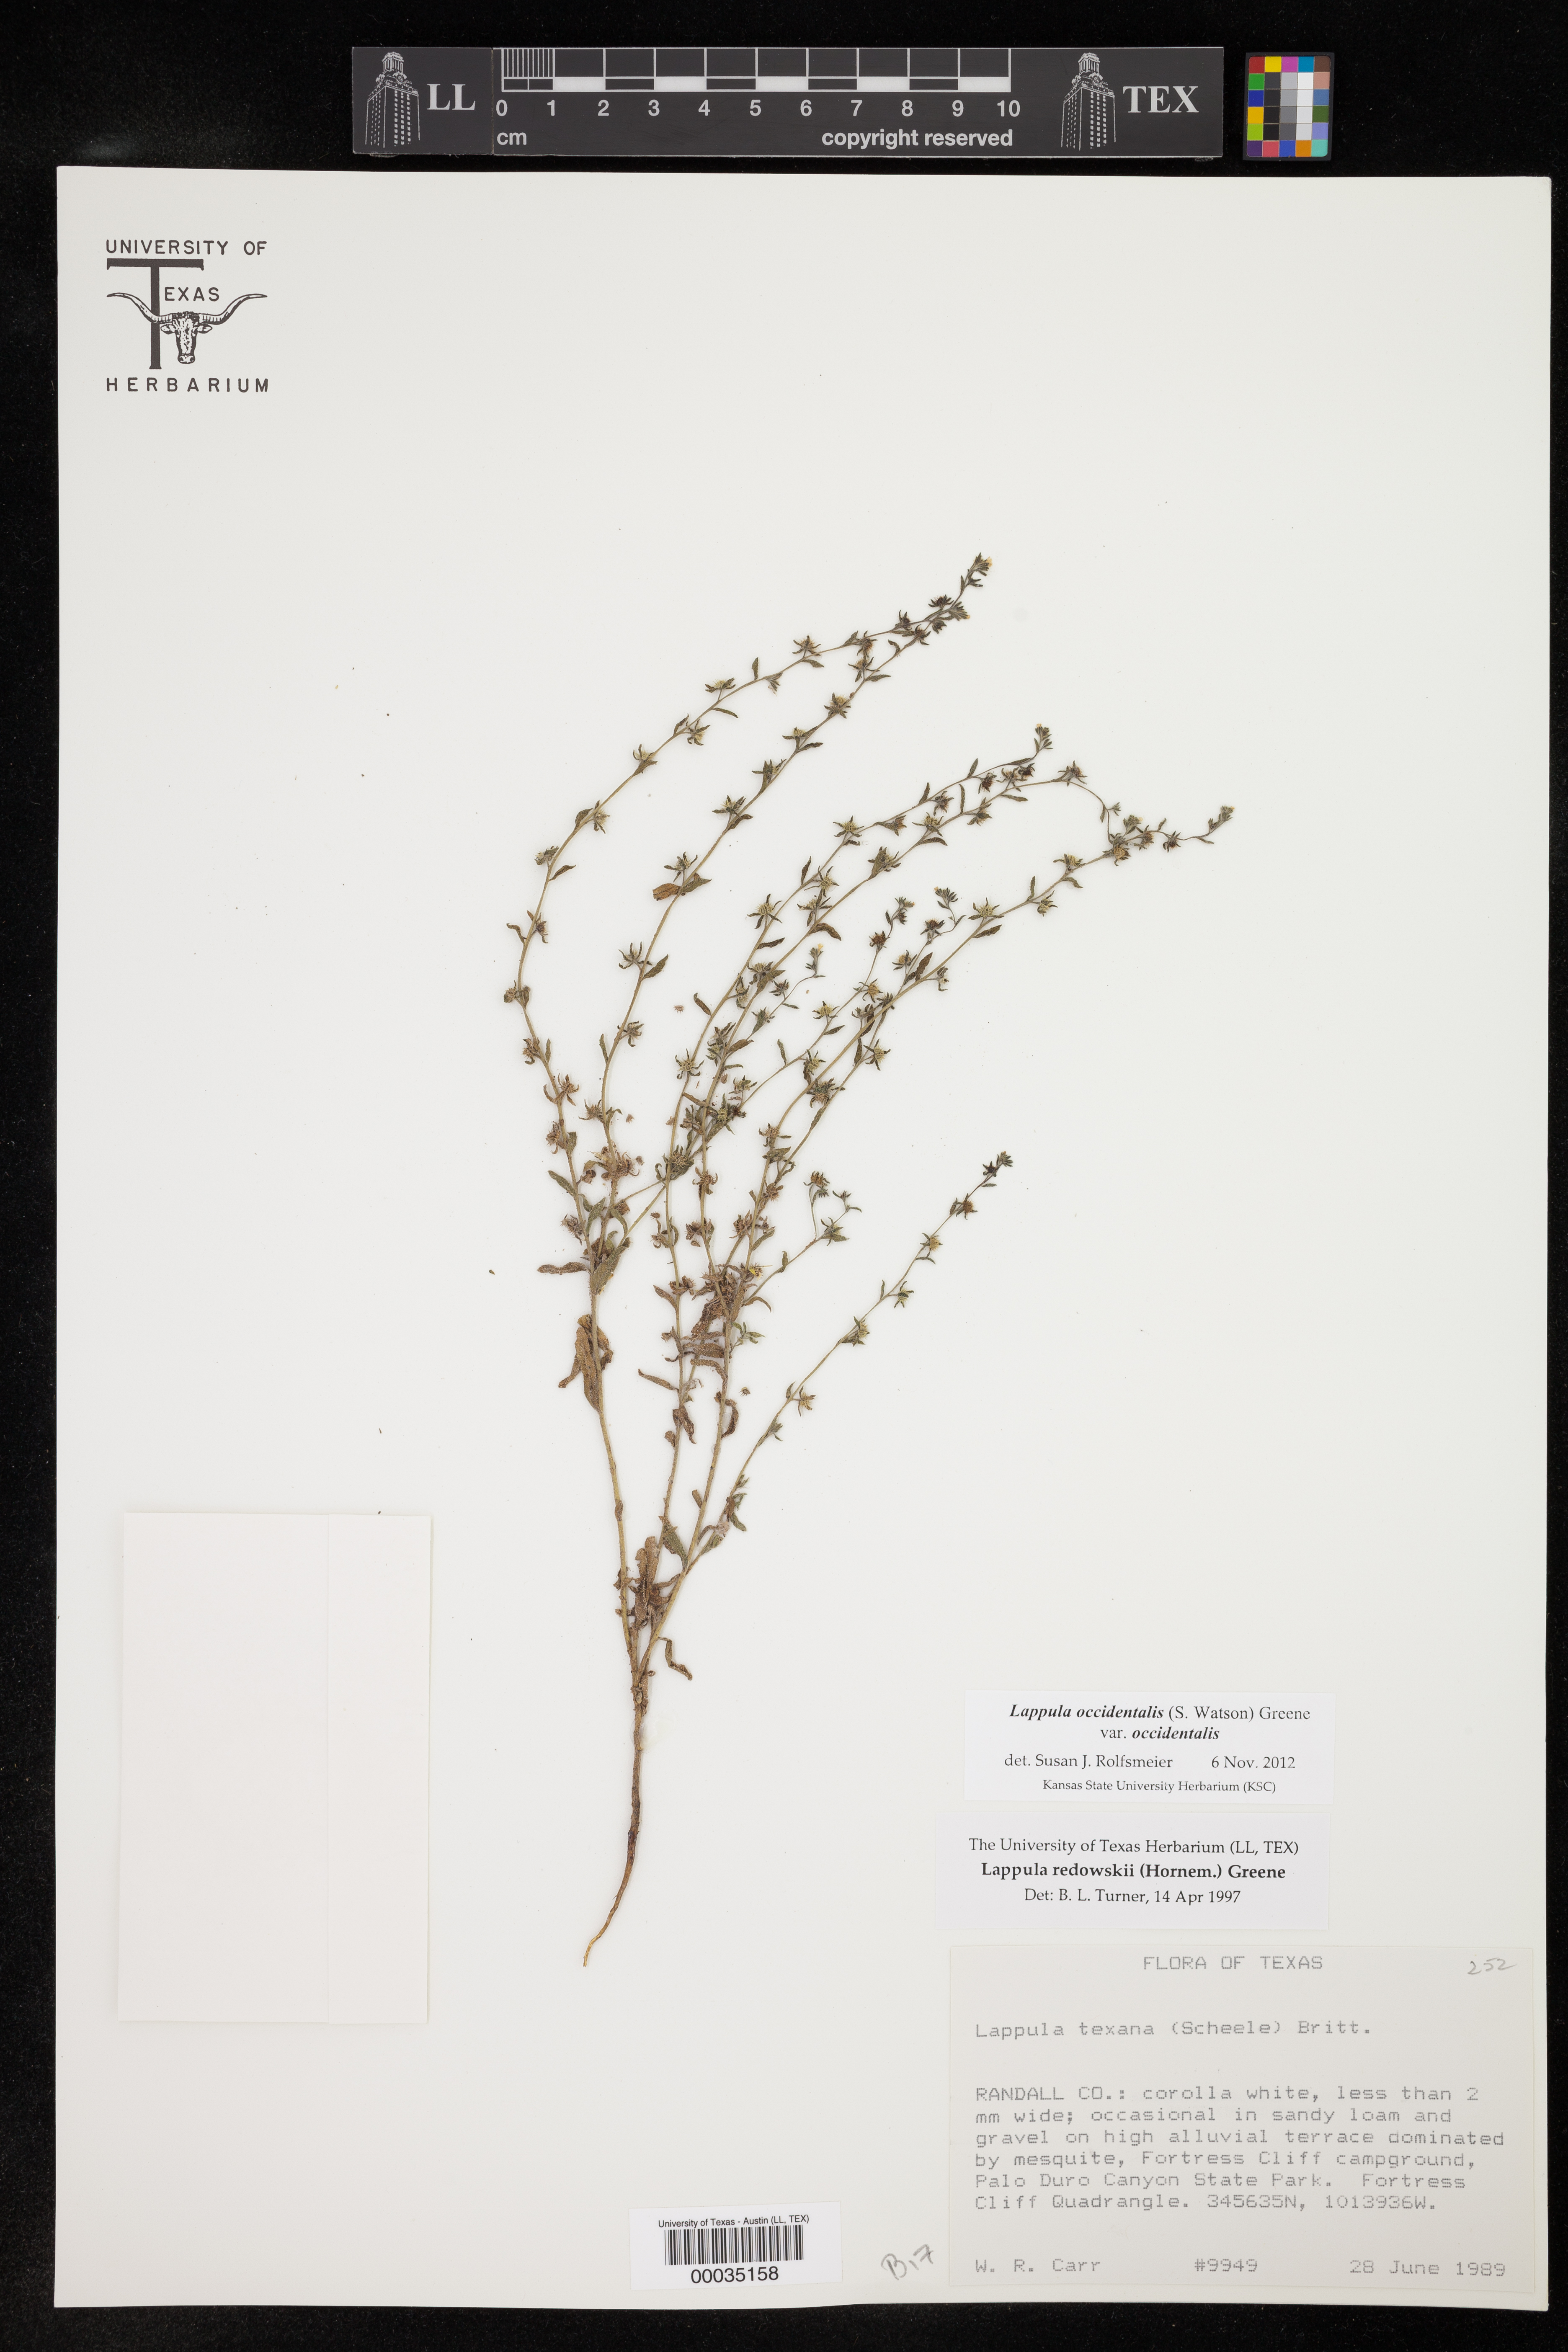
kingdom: Plantae
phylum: Tracheophyta
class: Magnoliopsida
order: Boraginales
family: Boraginaceae
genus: Lappula
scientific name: Lappula occidentalis
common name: Western stickseed
